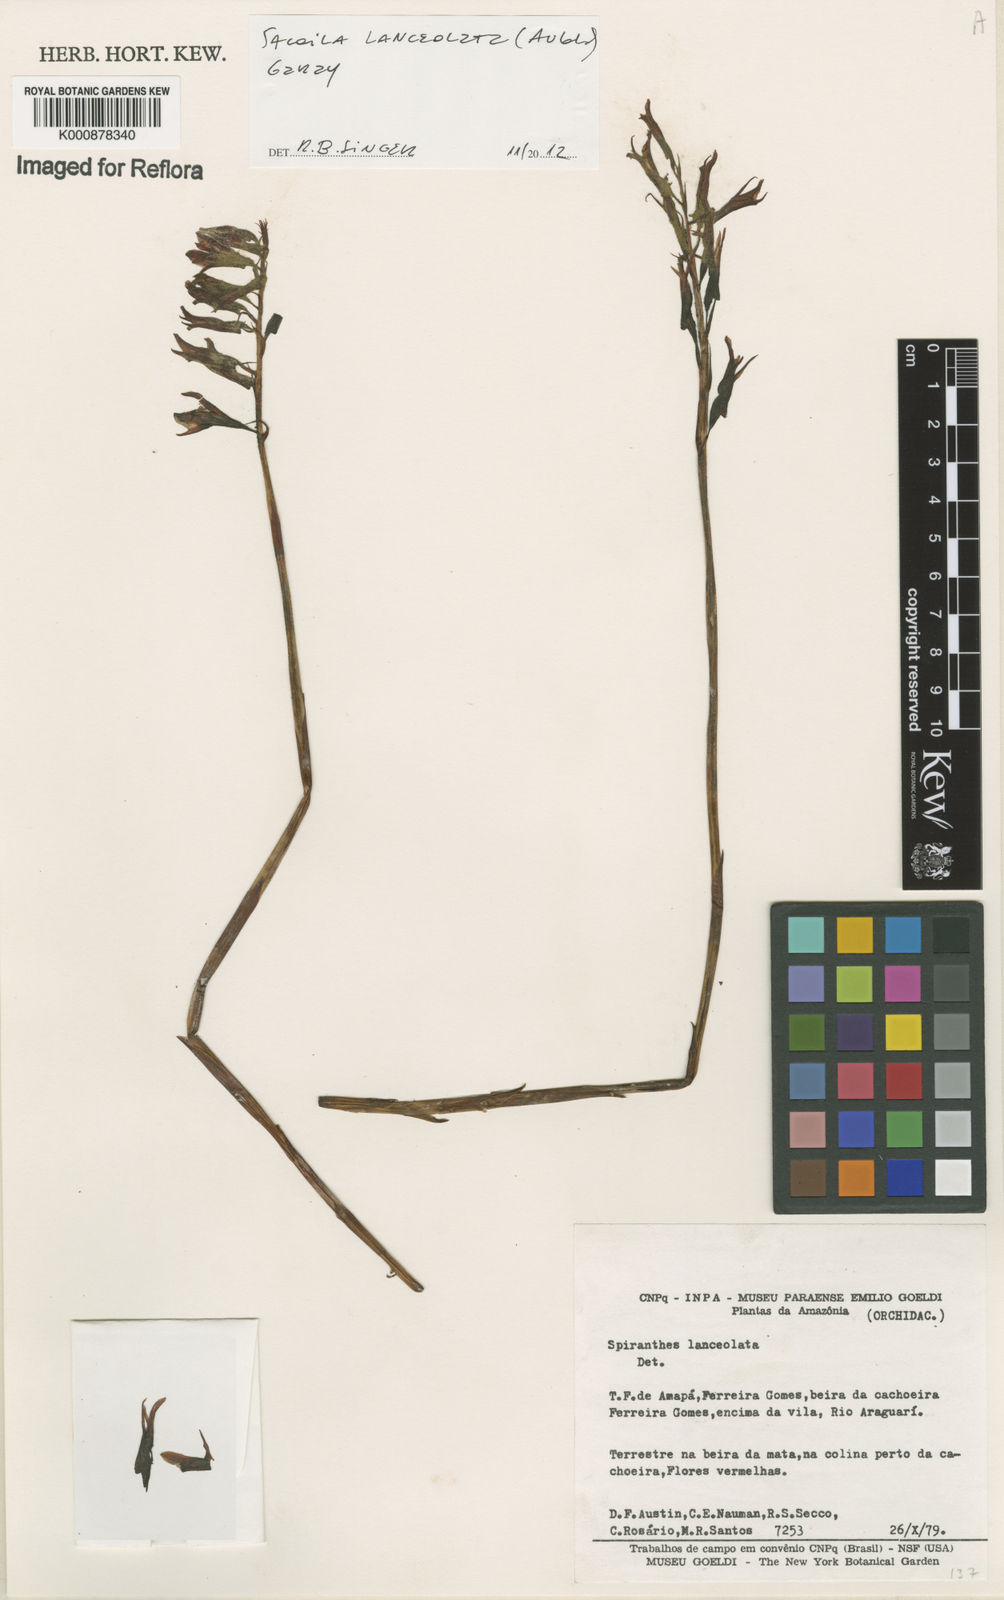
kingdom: Plantae
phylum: Tracheophyta
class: Liliopsida
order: Asparagales
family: Orchidaceae
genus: Sacoila
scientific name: Sacoila lanceolata
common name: Leafless beaked ladiestresses
